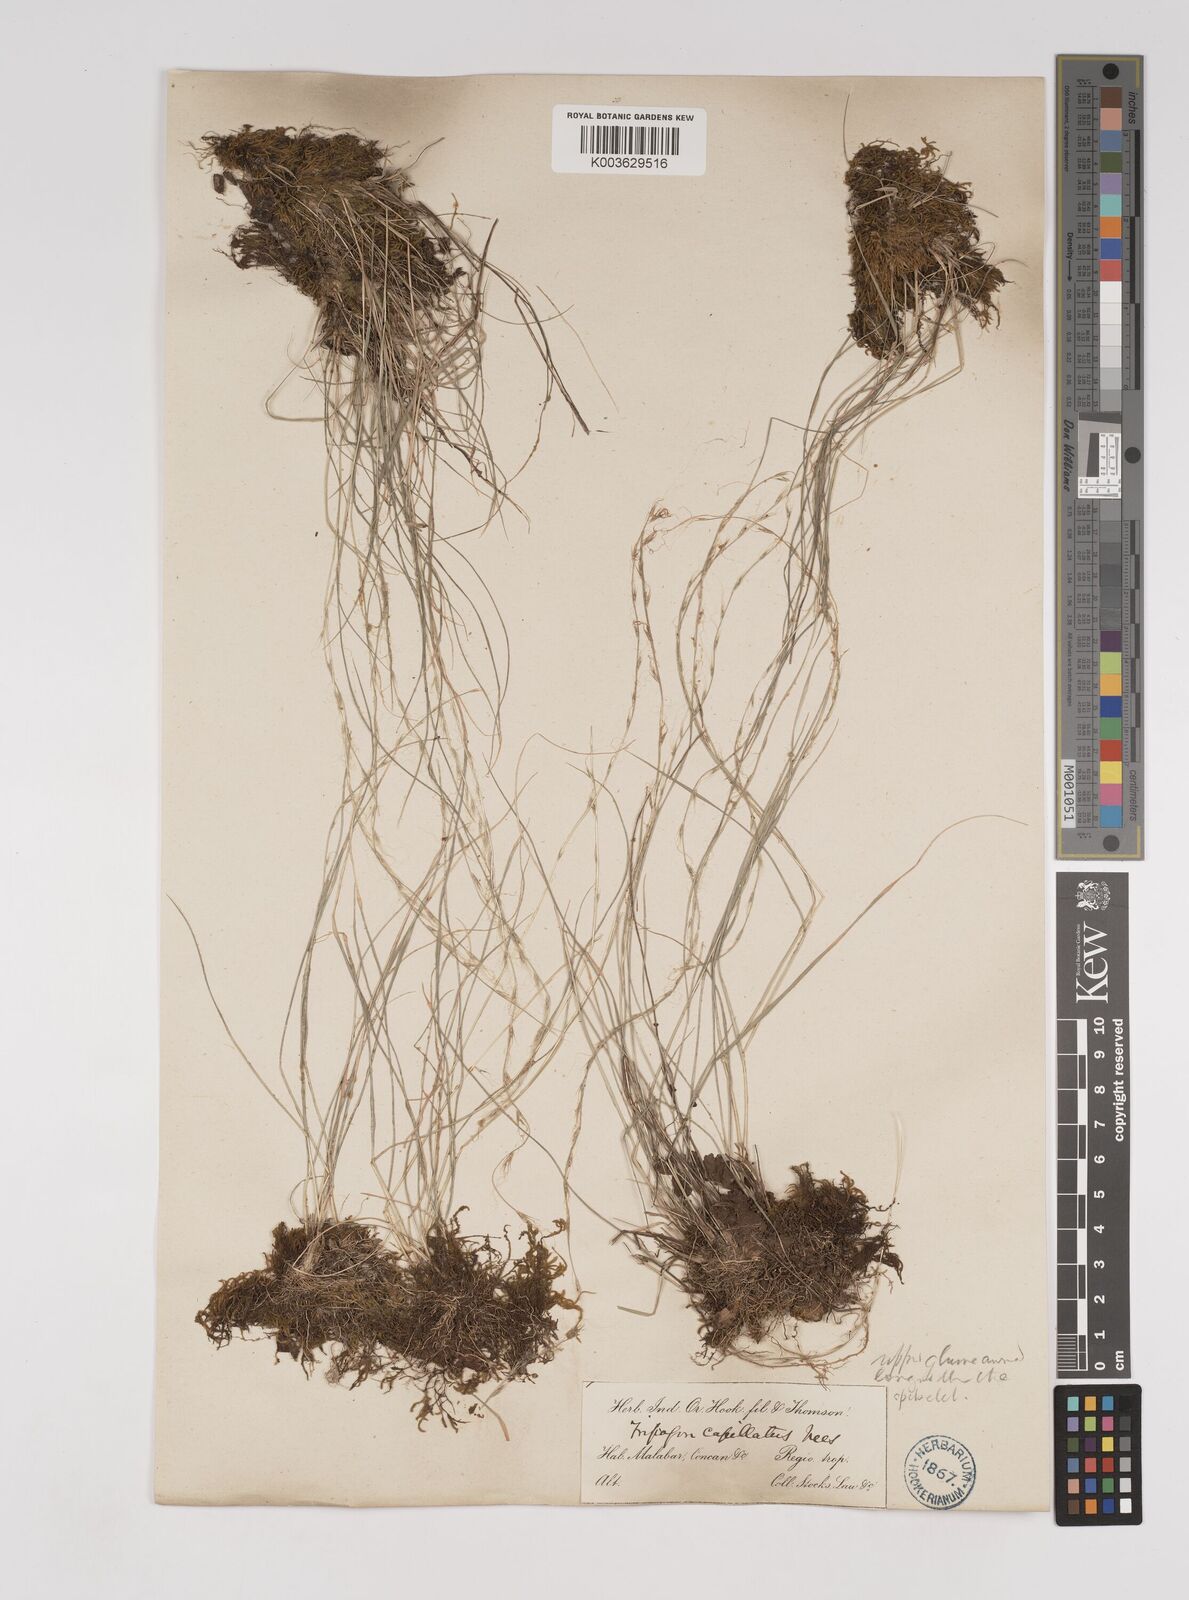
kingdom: Plantae
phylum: Tracheophyta
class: Liliopsida
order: Poales
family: Poaceae
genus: Tripogon
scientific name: Tripogon capillatus
